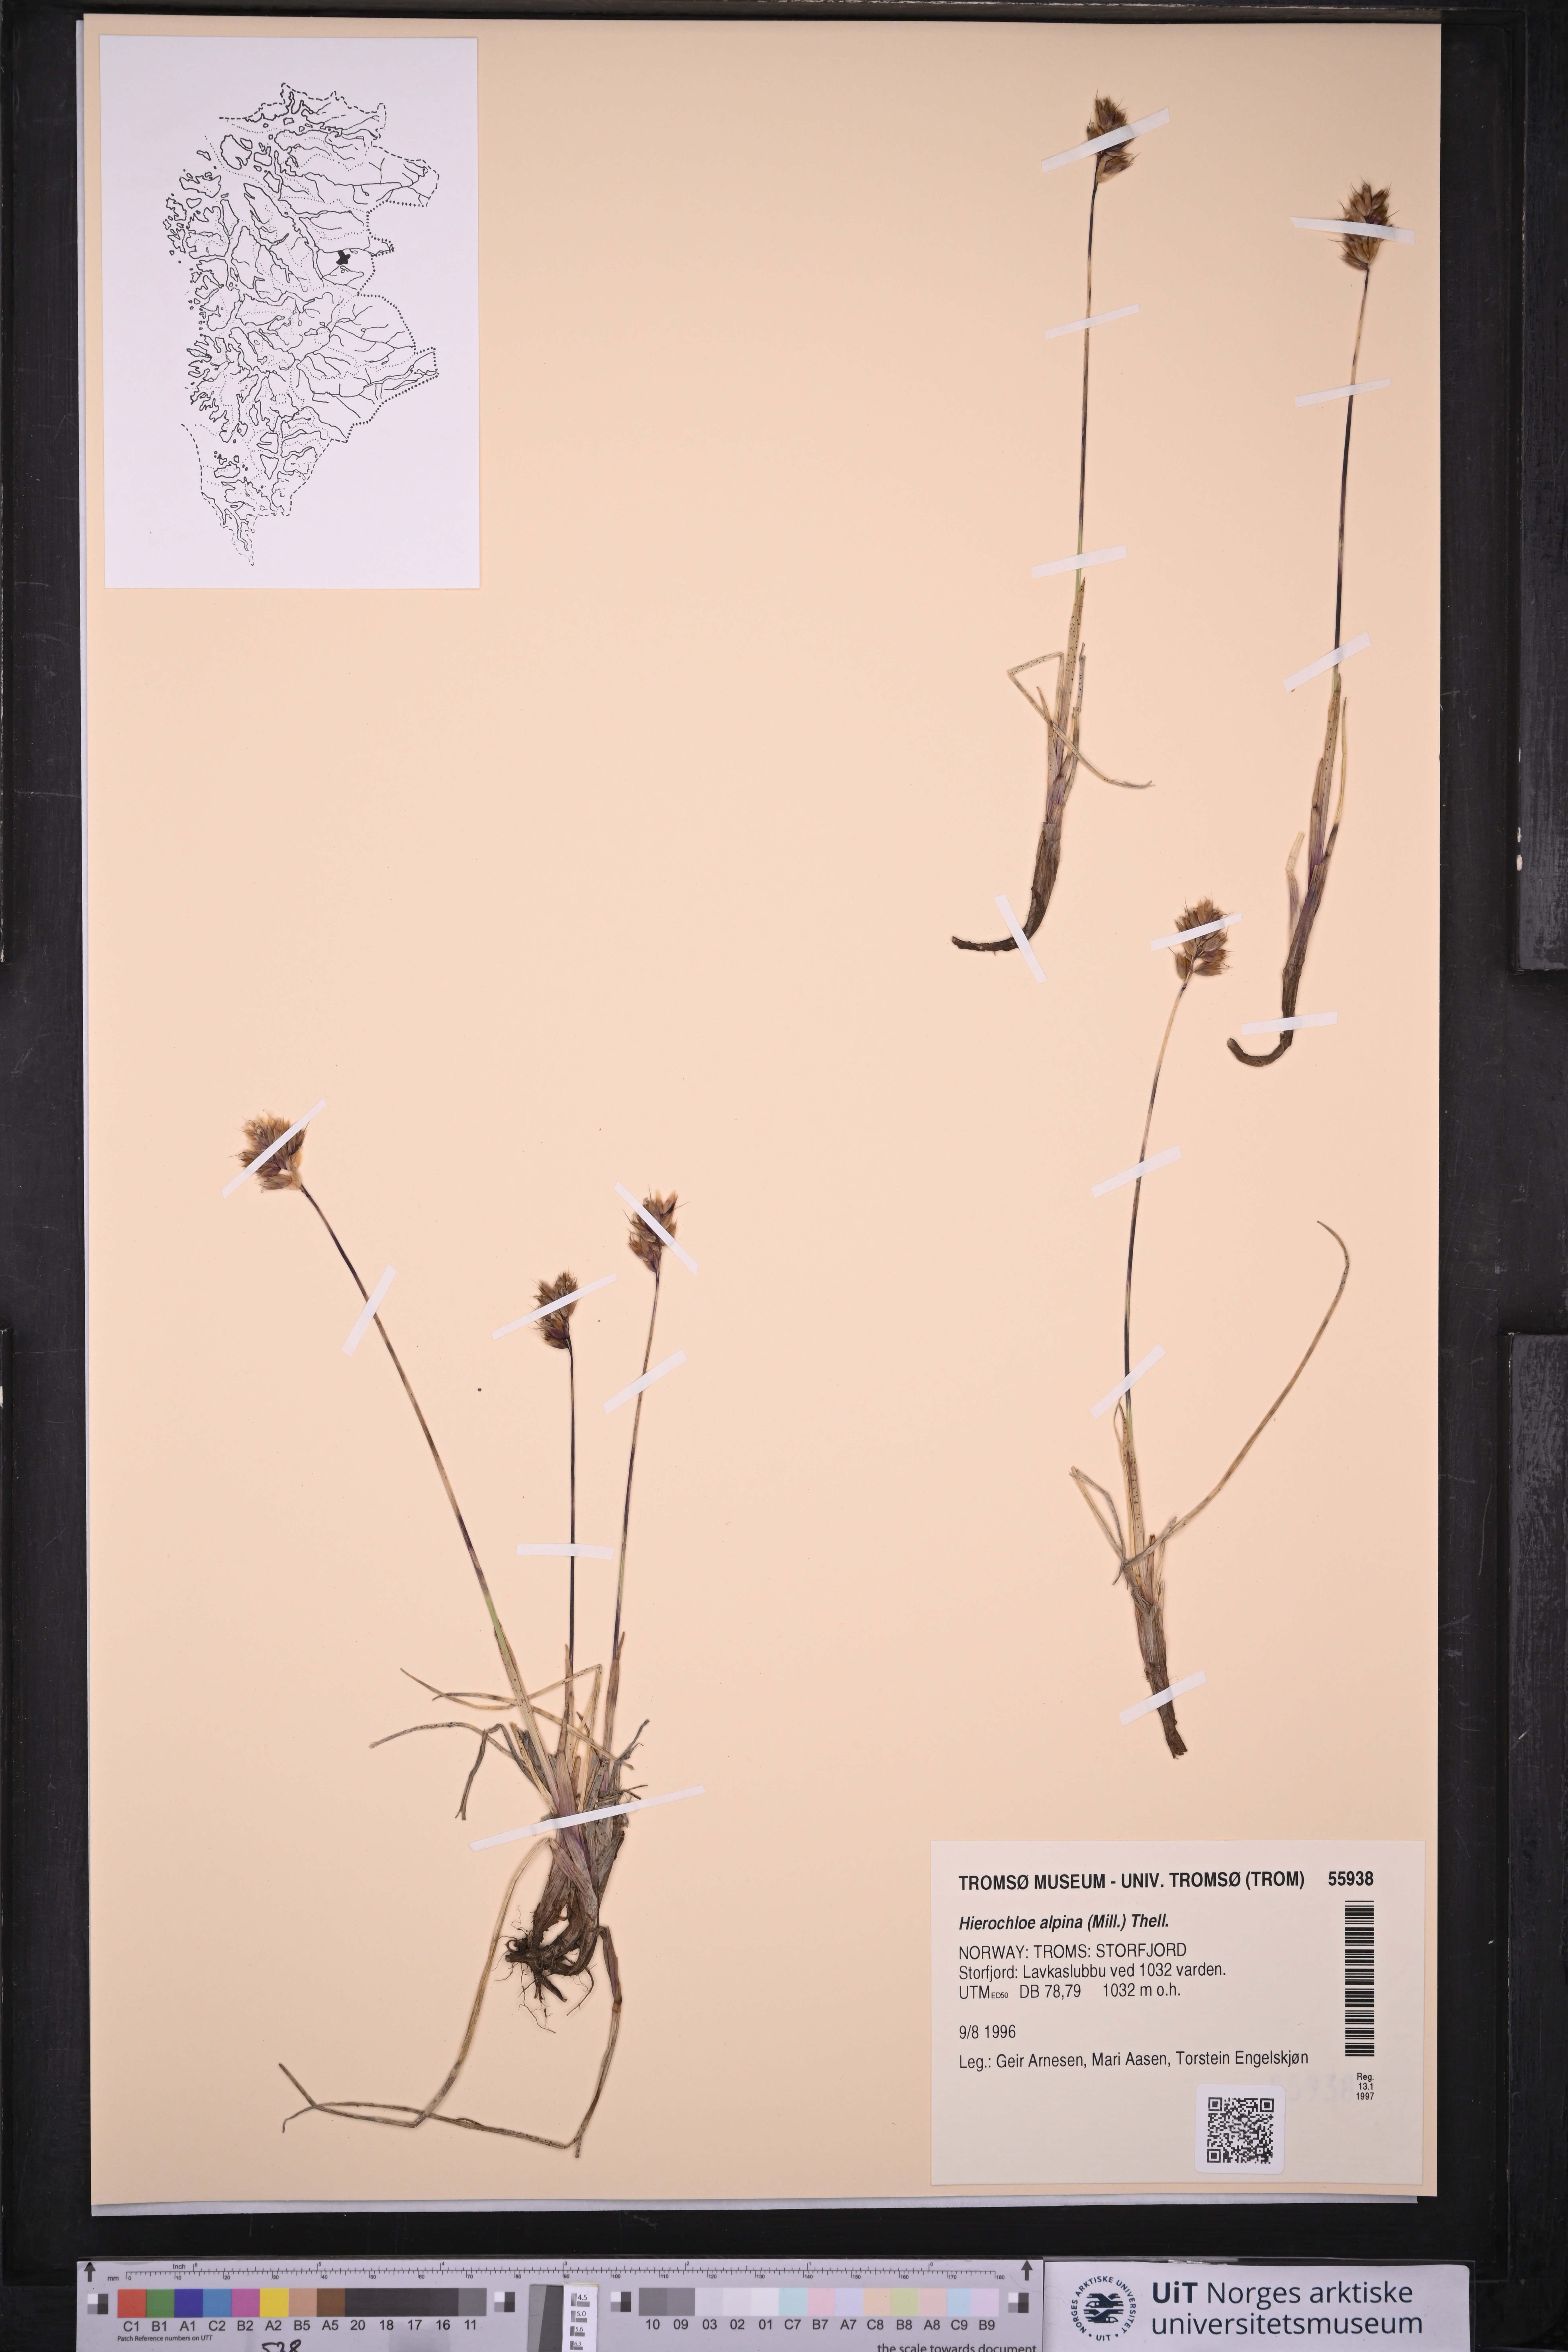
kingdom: Plantae
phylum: Tracheophyta
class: Liliopsida
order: Poales
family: Poaceae
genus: Anthoxanthum
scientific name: Anthoxanthum monticola
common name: Alpine sweetgrass
